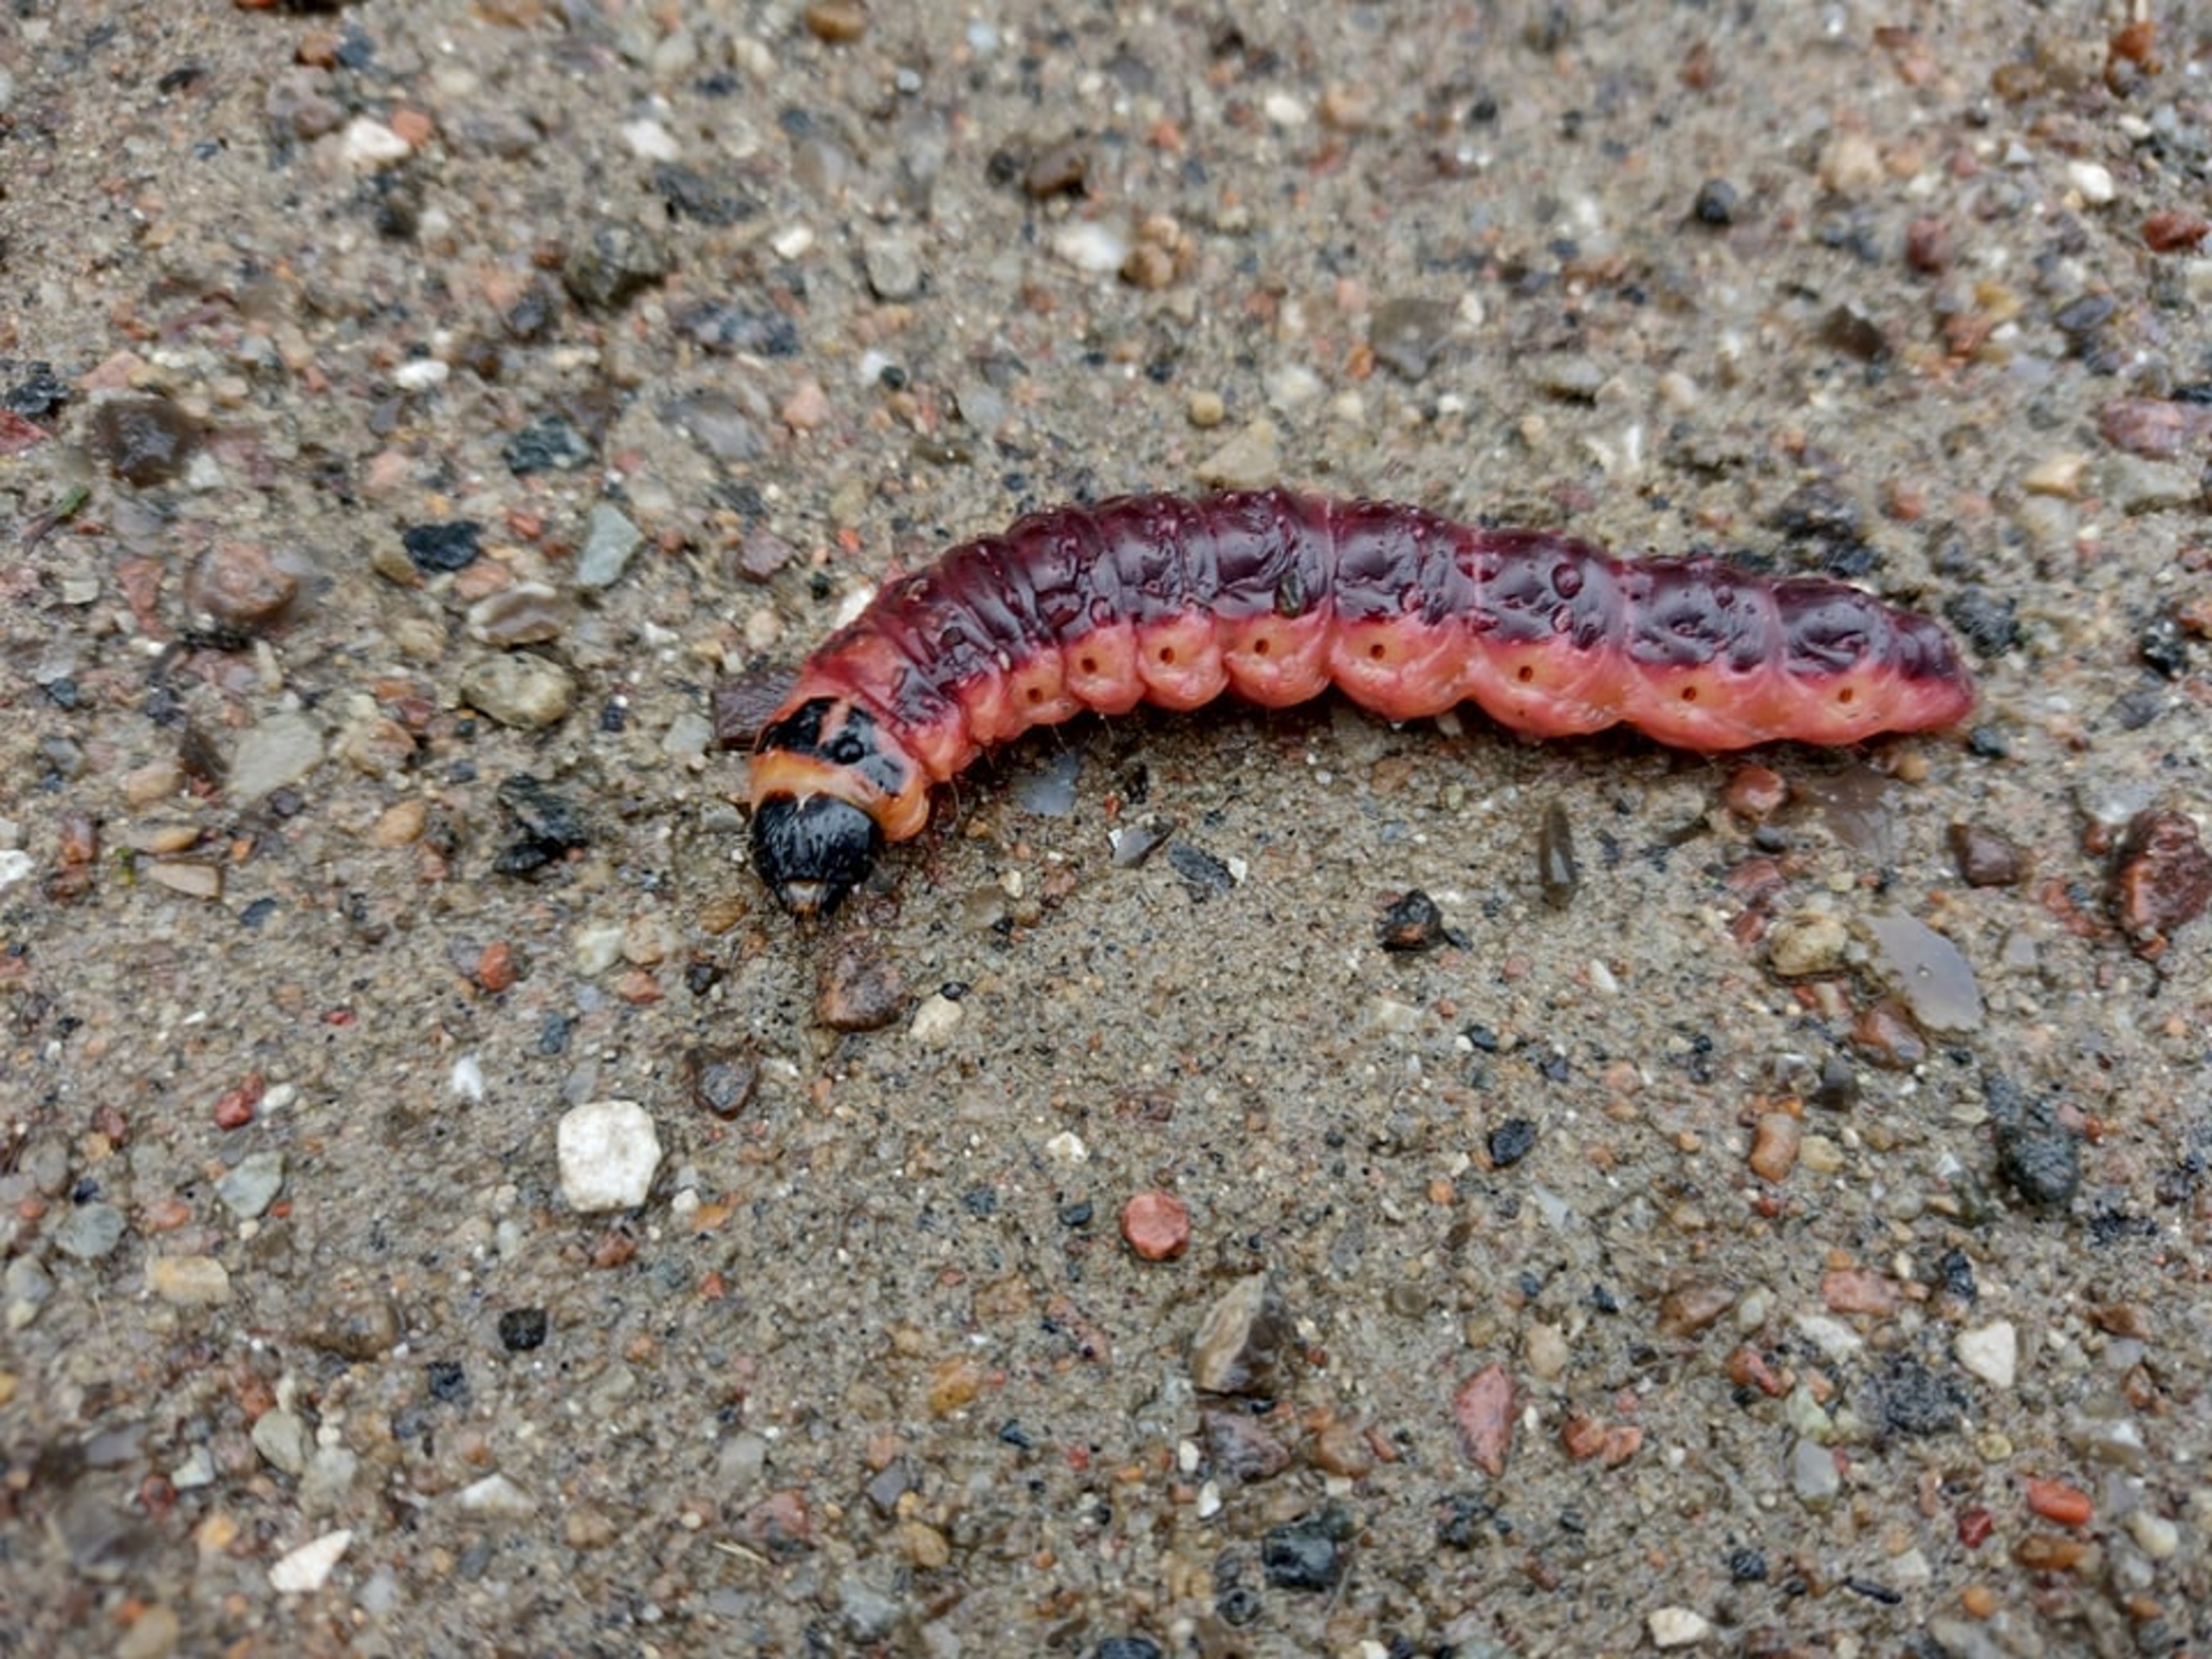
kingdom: Animalia
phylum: Arthropoda
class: Insecta
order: Lepidoptera
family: Cossidae
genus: Cossus
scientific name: Cossus cossus
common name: Pileborer
